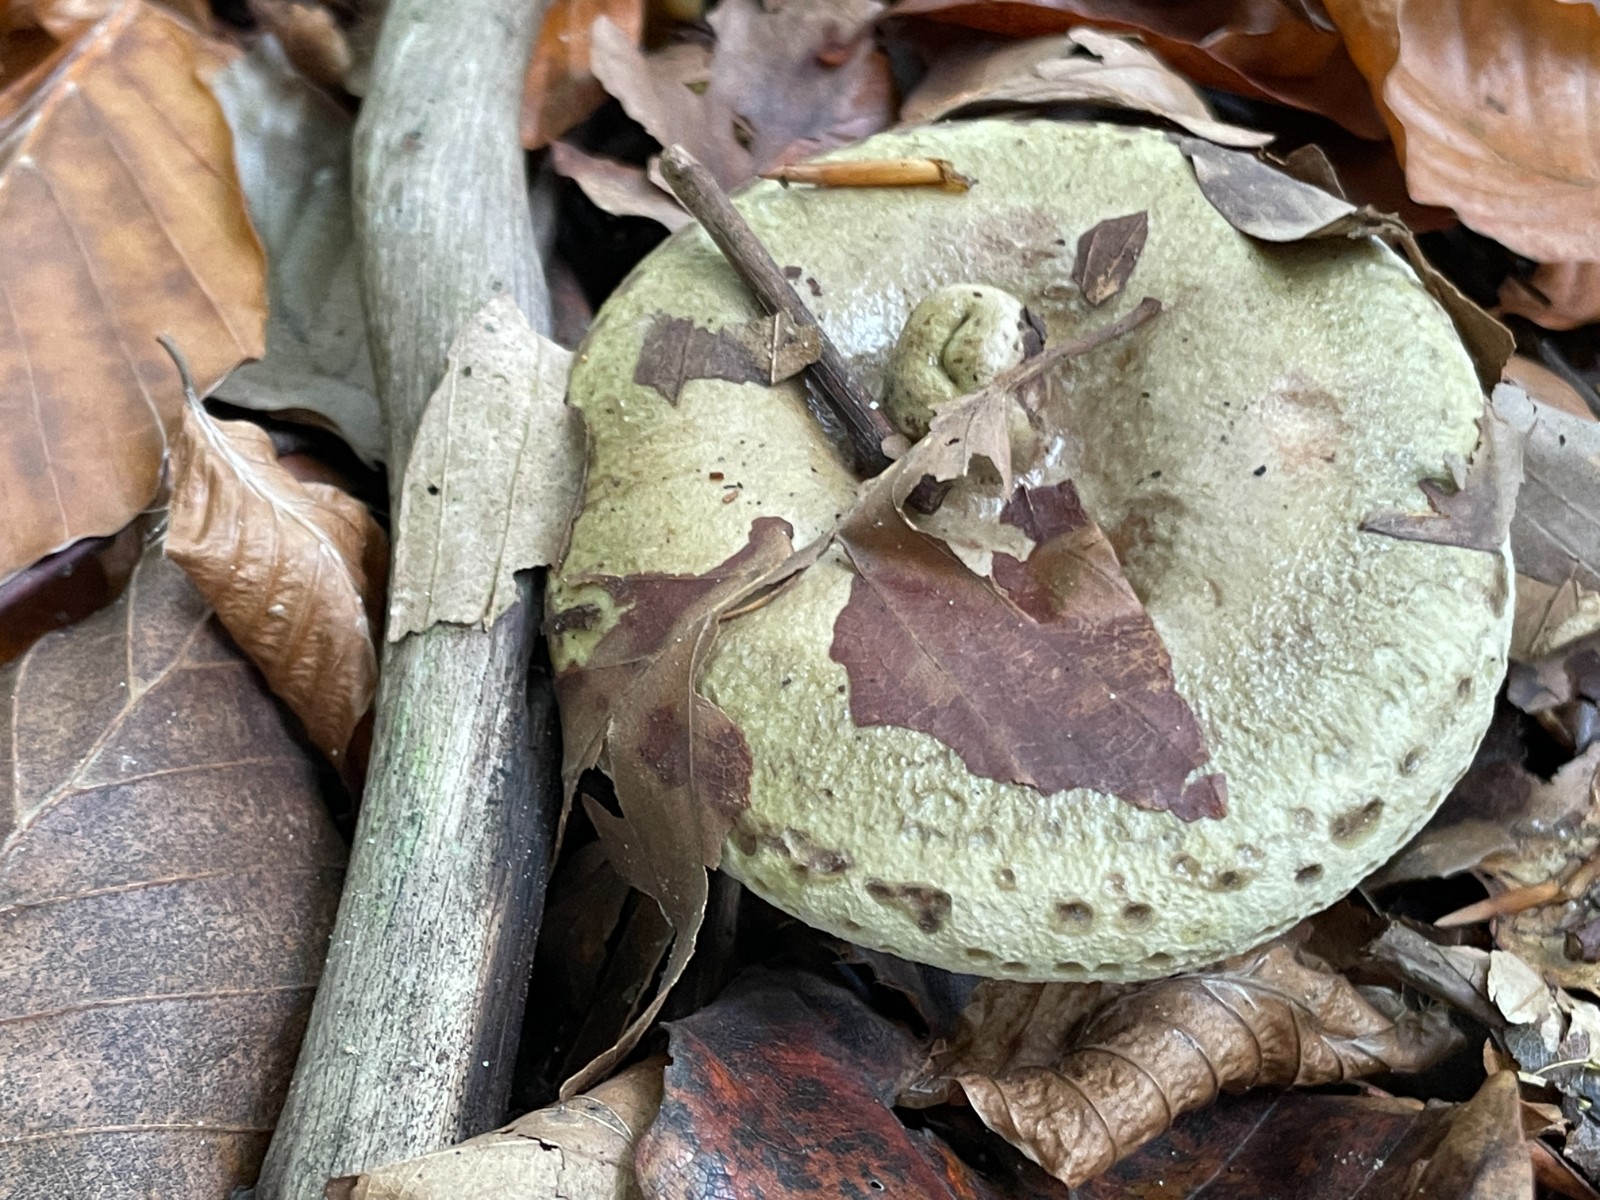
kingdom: Fungi
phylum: Basidiomycota
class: Agaricomycetes
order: Russulales
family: Russulaceae
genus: Lactarius
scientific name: Lactarius blennius
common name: dråbeplettet mælkehat
